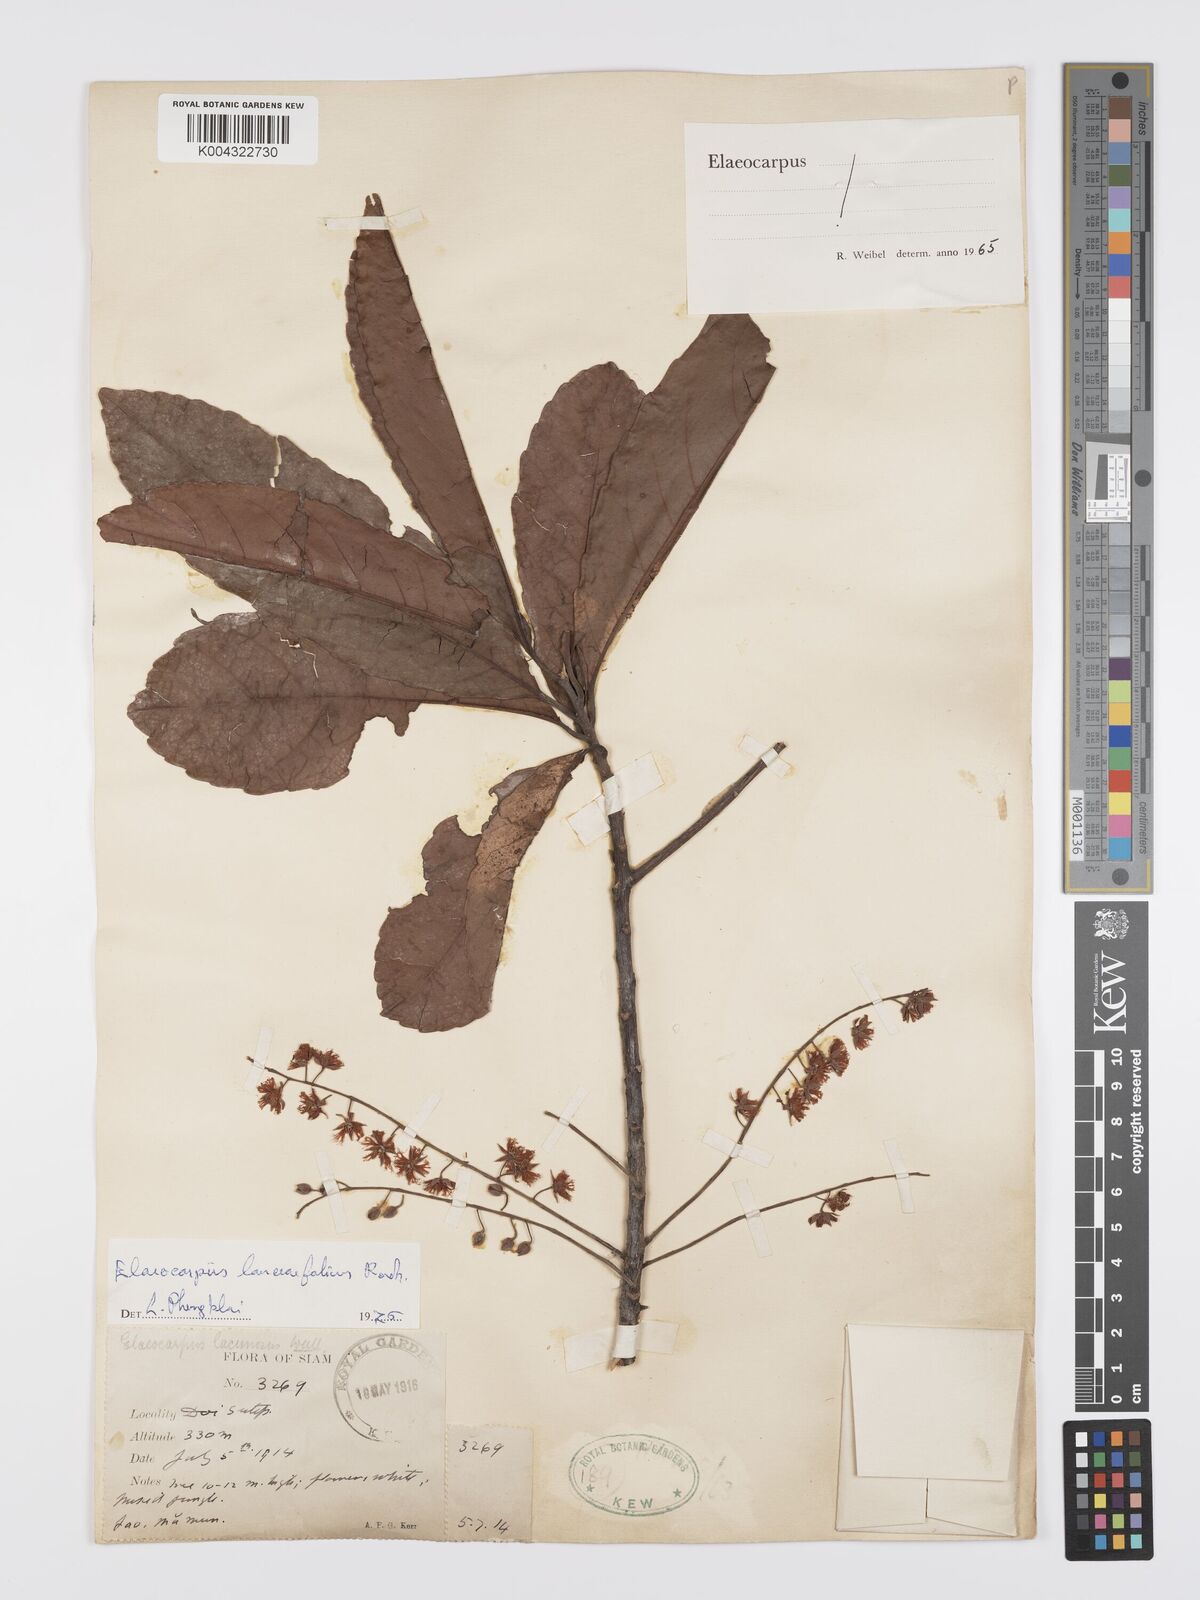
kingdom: Plantae
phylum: Tracheophyta
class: Magnoliopsida
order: Oxalidales
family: Elaeocarpaceae
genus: Elaeocarpus
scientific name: Elaeocarpus lanceifolius
